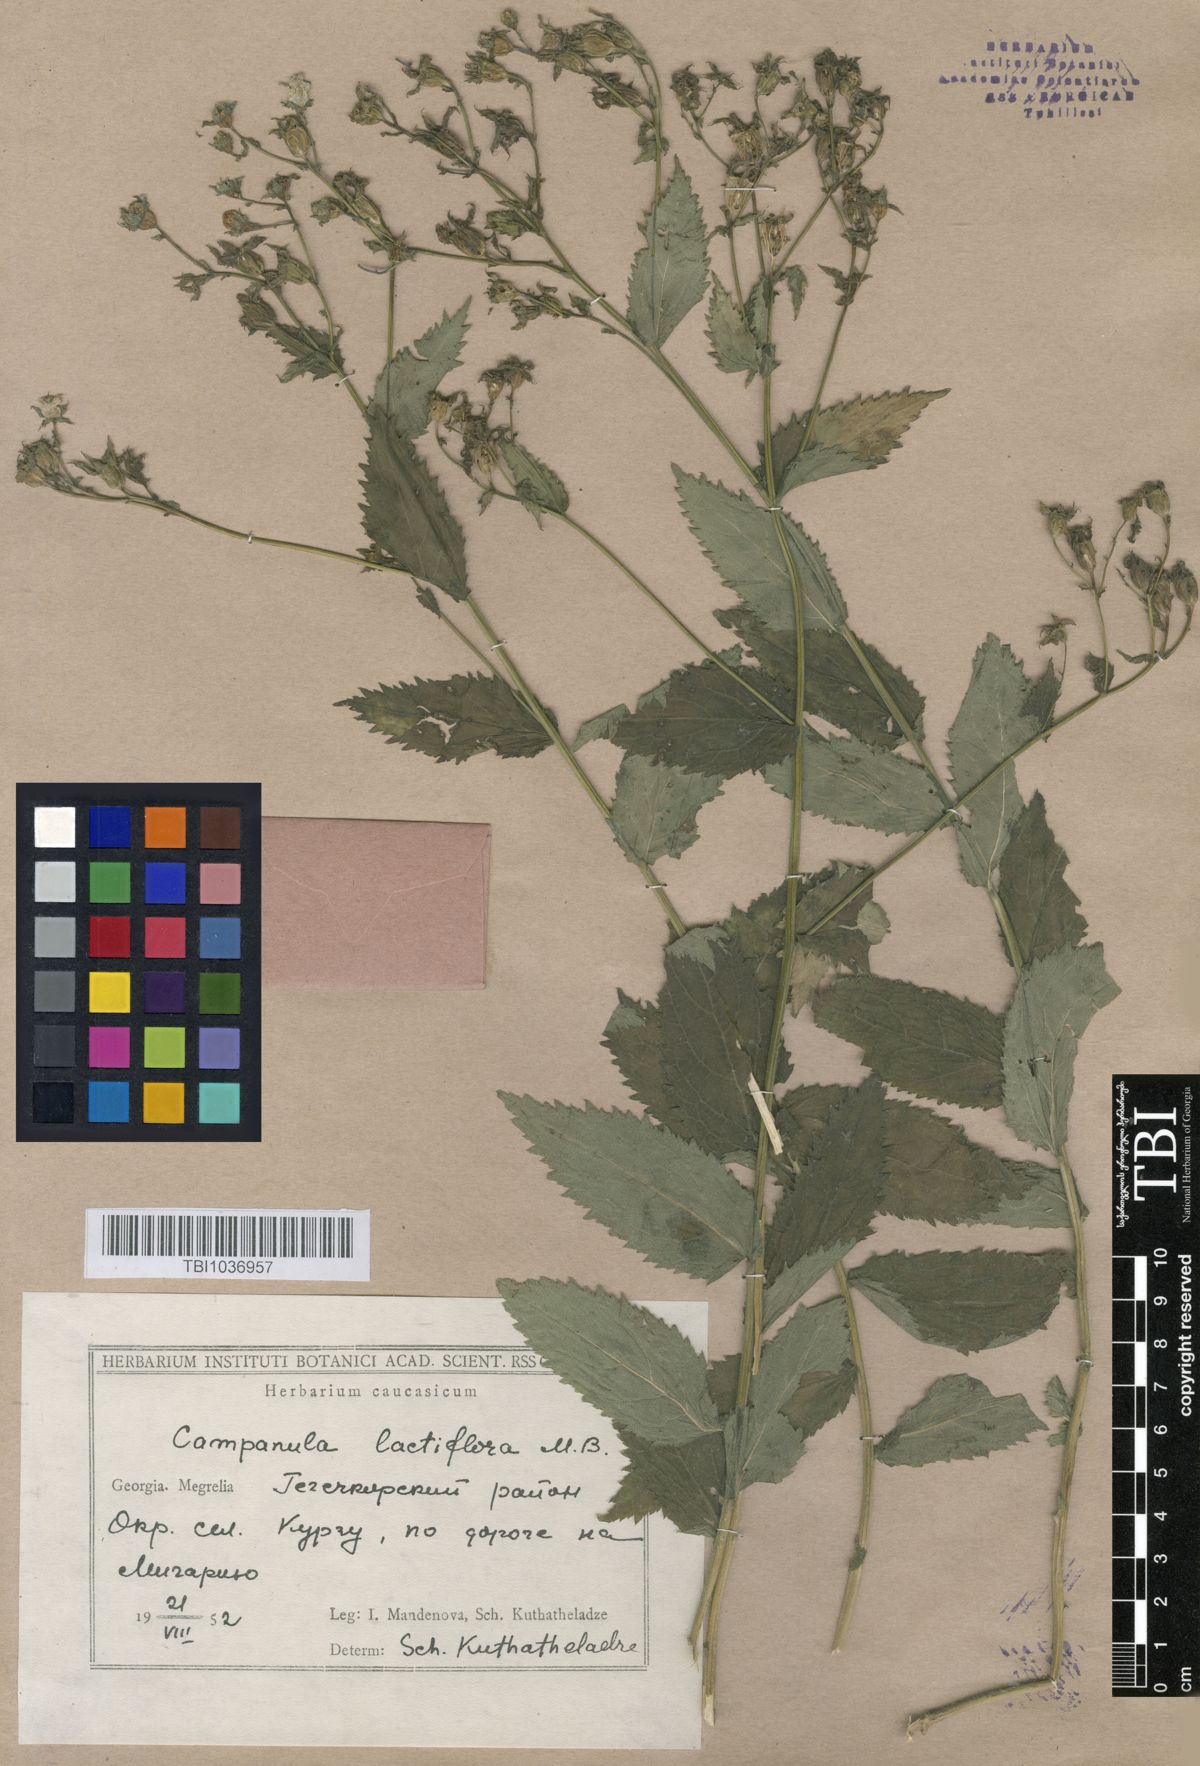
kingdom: Plantae
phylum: Tracheophyta
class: Magnoliopsida
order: Asterales
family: Campanulaceae
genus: Campanula
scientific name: Campanula lactiflora
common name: Milky bellflower
